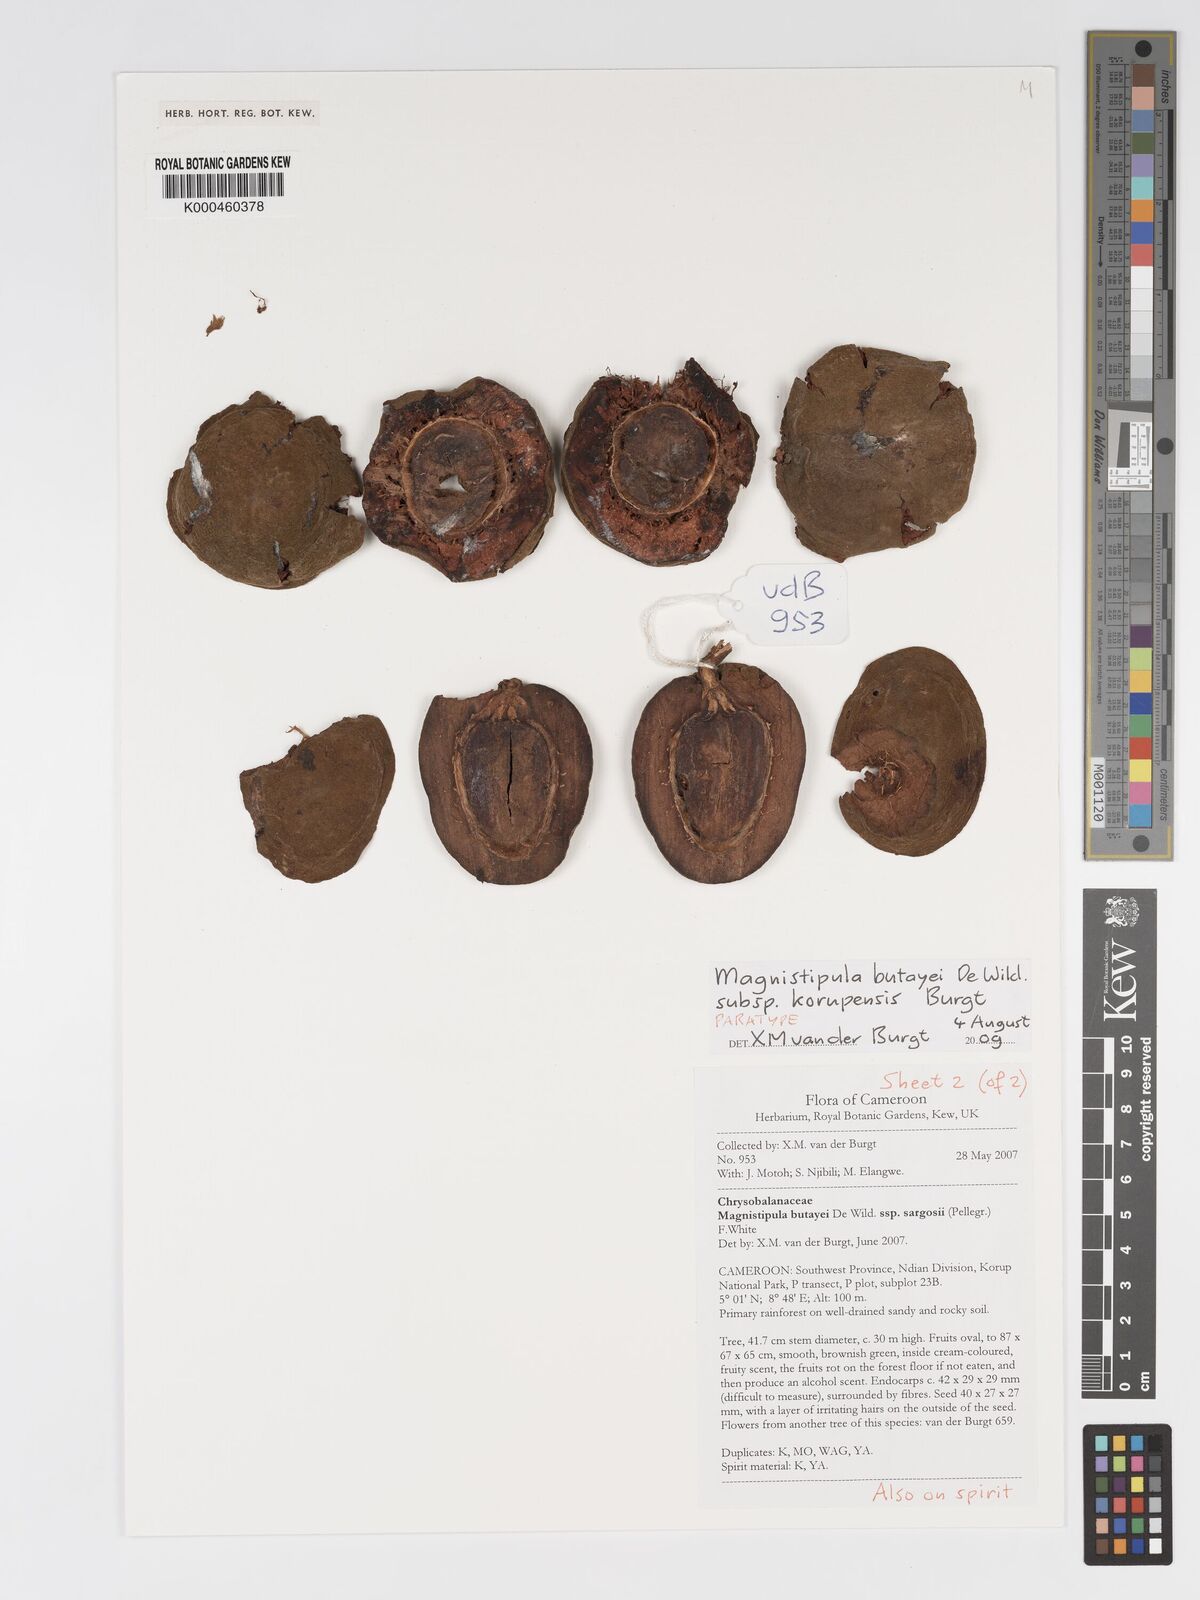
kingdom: Plantae
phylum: Tracheophyta
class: Magnoliopsida
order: Malpighiales
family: Chrysobalanaceae
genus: Magnistipula
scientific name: Magnistipula butayei
